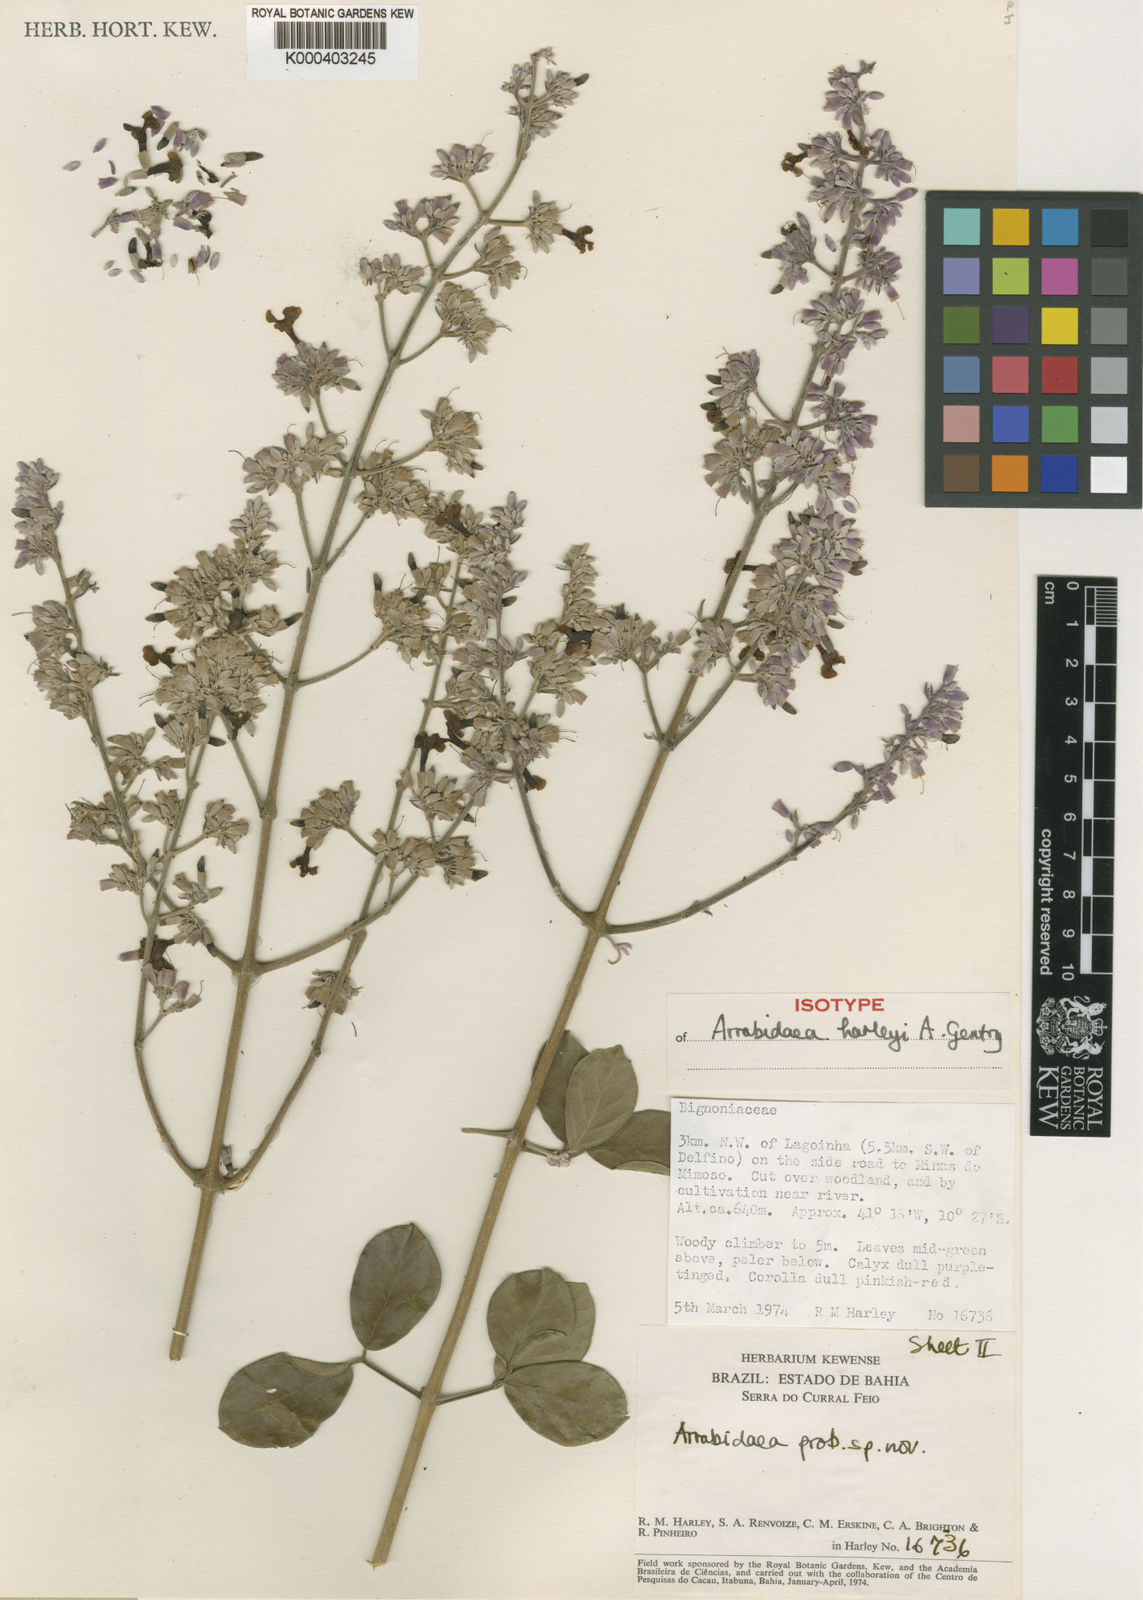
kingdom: Plantae
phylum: Tracheophyta
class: Magnoliopsida
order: Lamiales
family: Bignoniaceae
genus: Xylophragma
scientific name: Xylophragma harleyi
